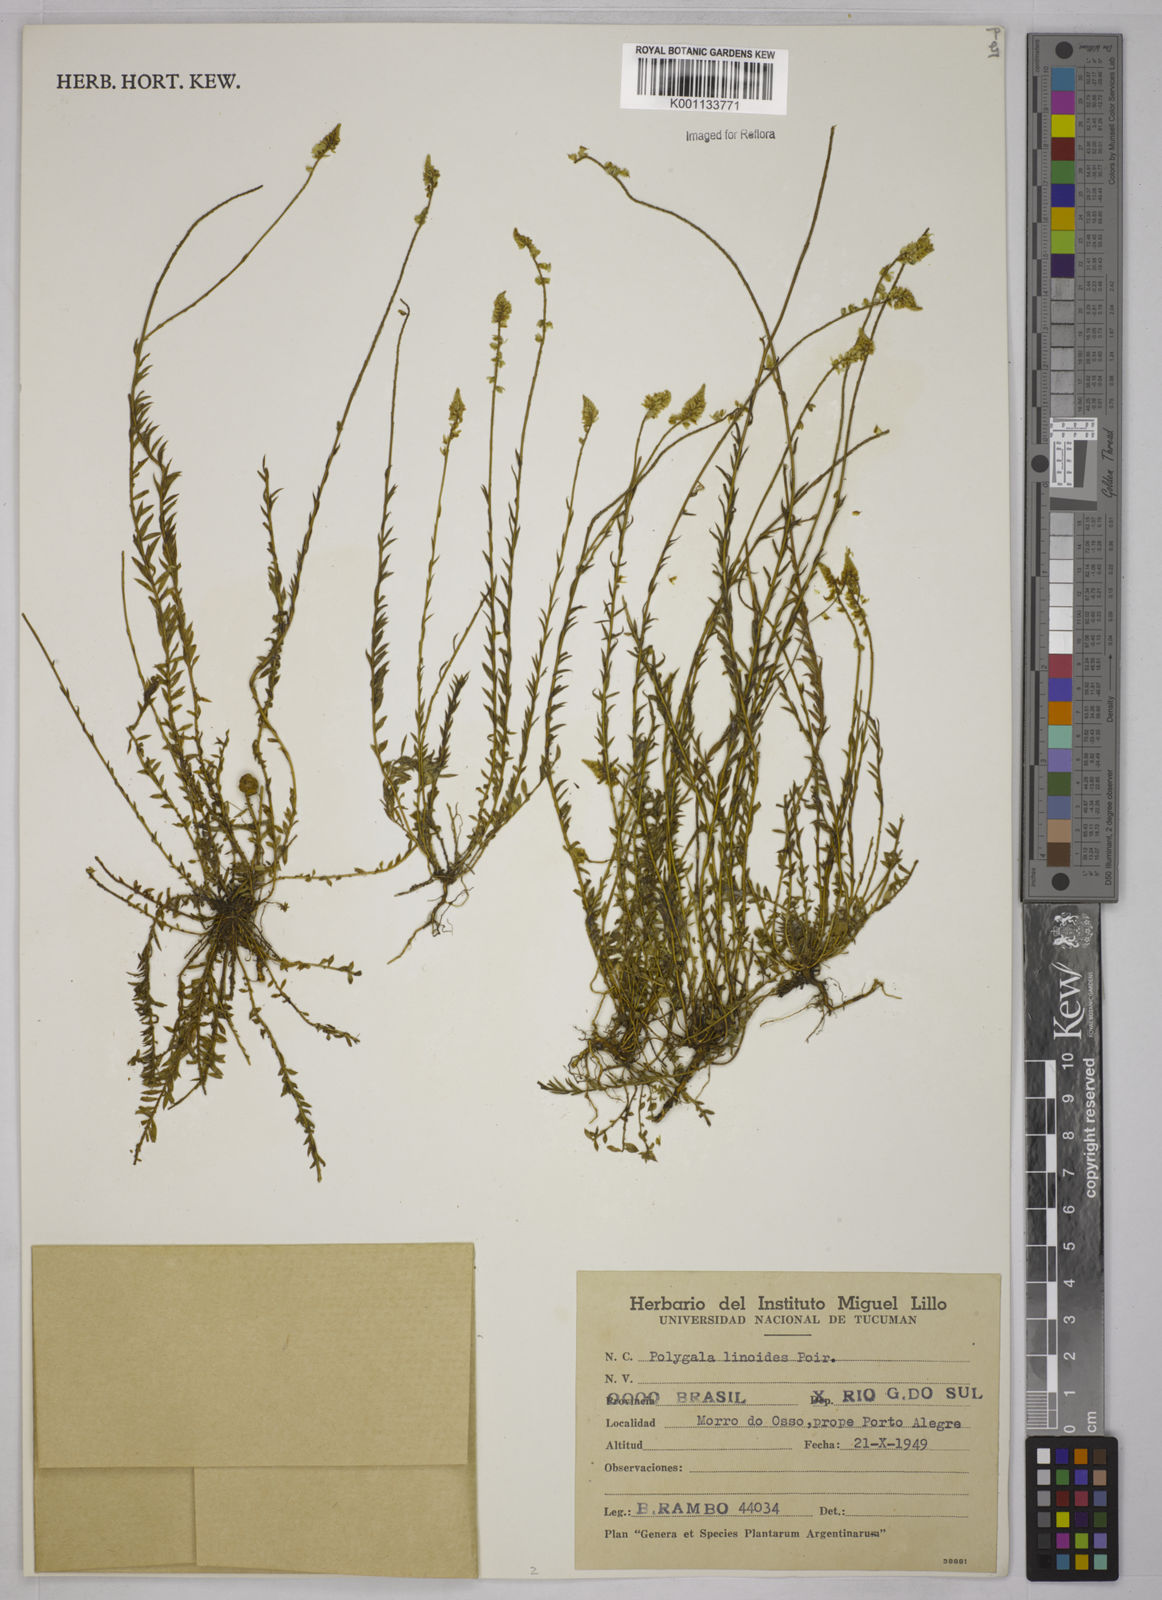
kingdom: Plantae
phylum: Tracheophyta
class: Magnoliopsida
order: Fabales
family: Polygalaceae
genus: Polygala
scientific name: Polygala linoides
